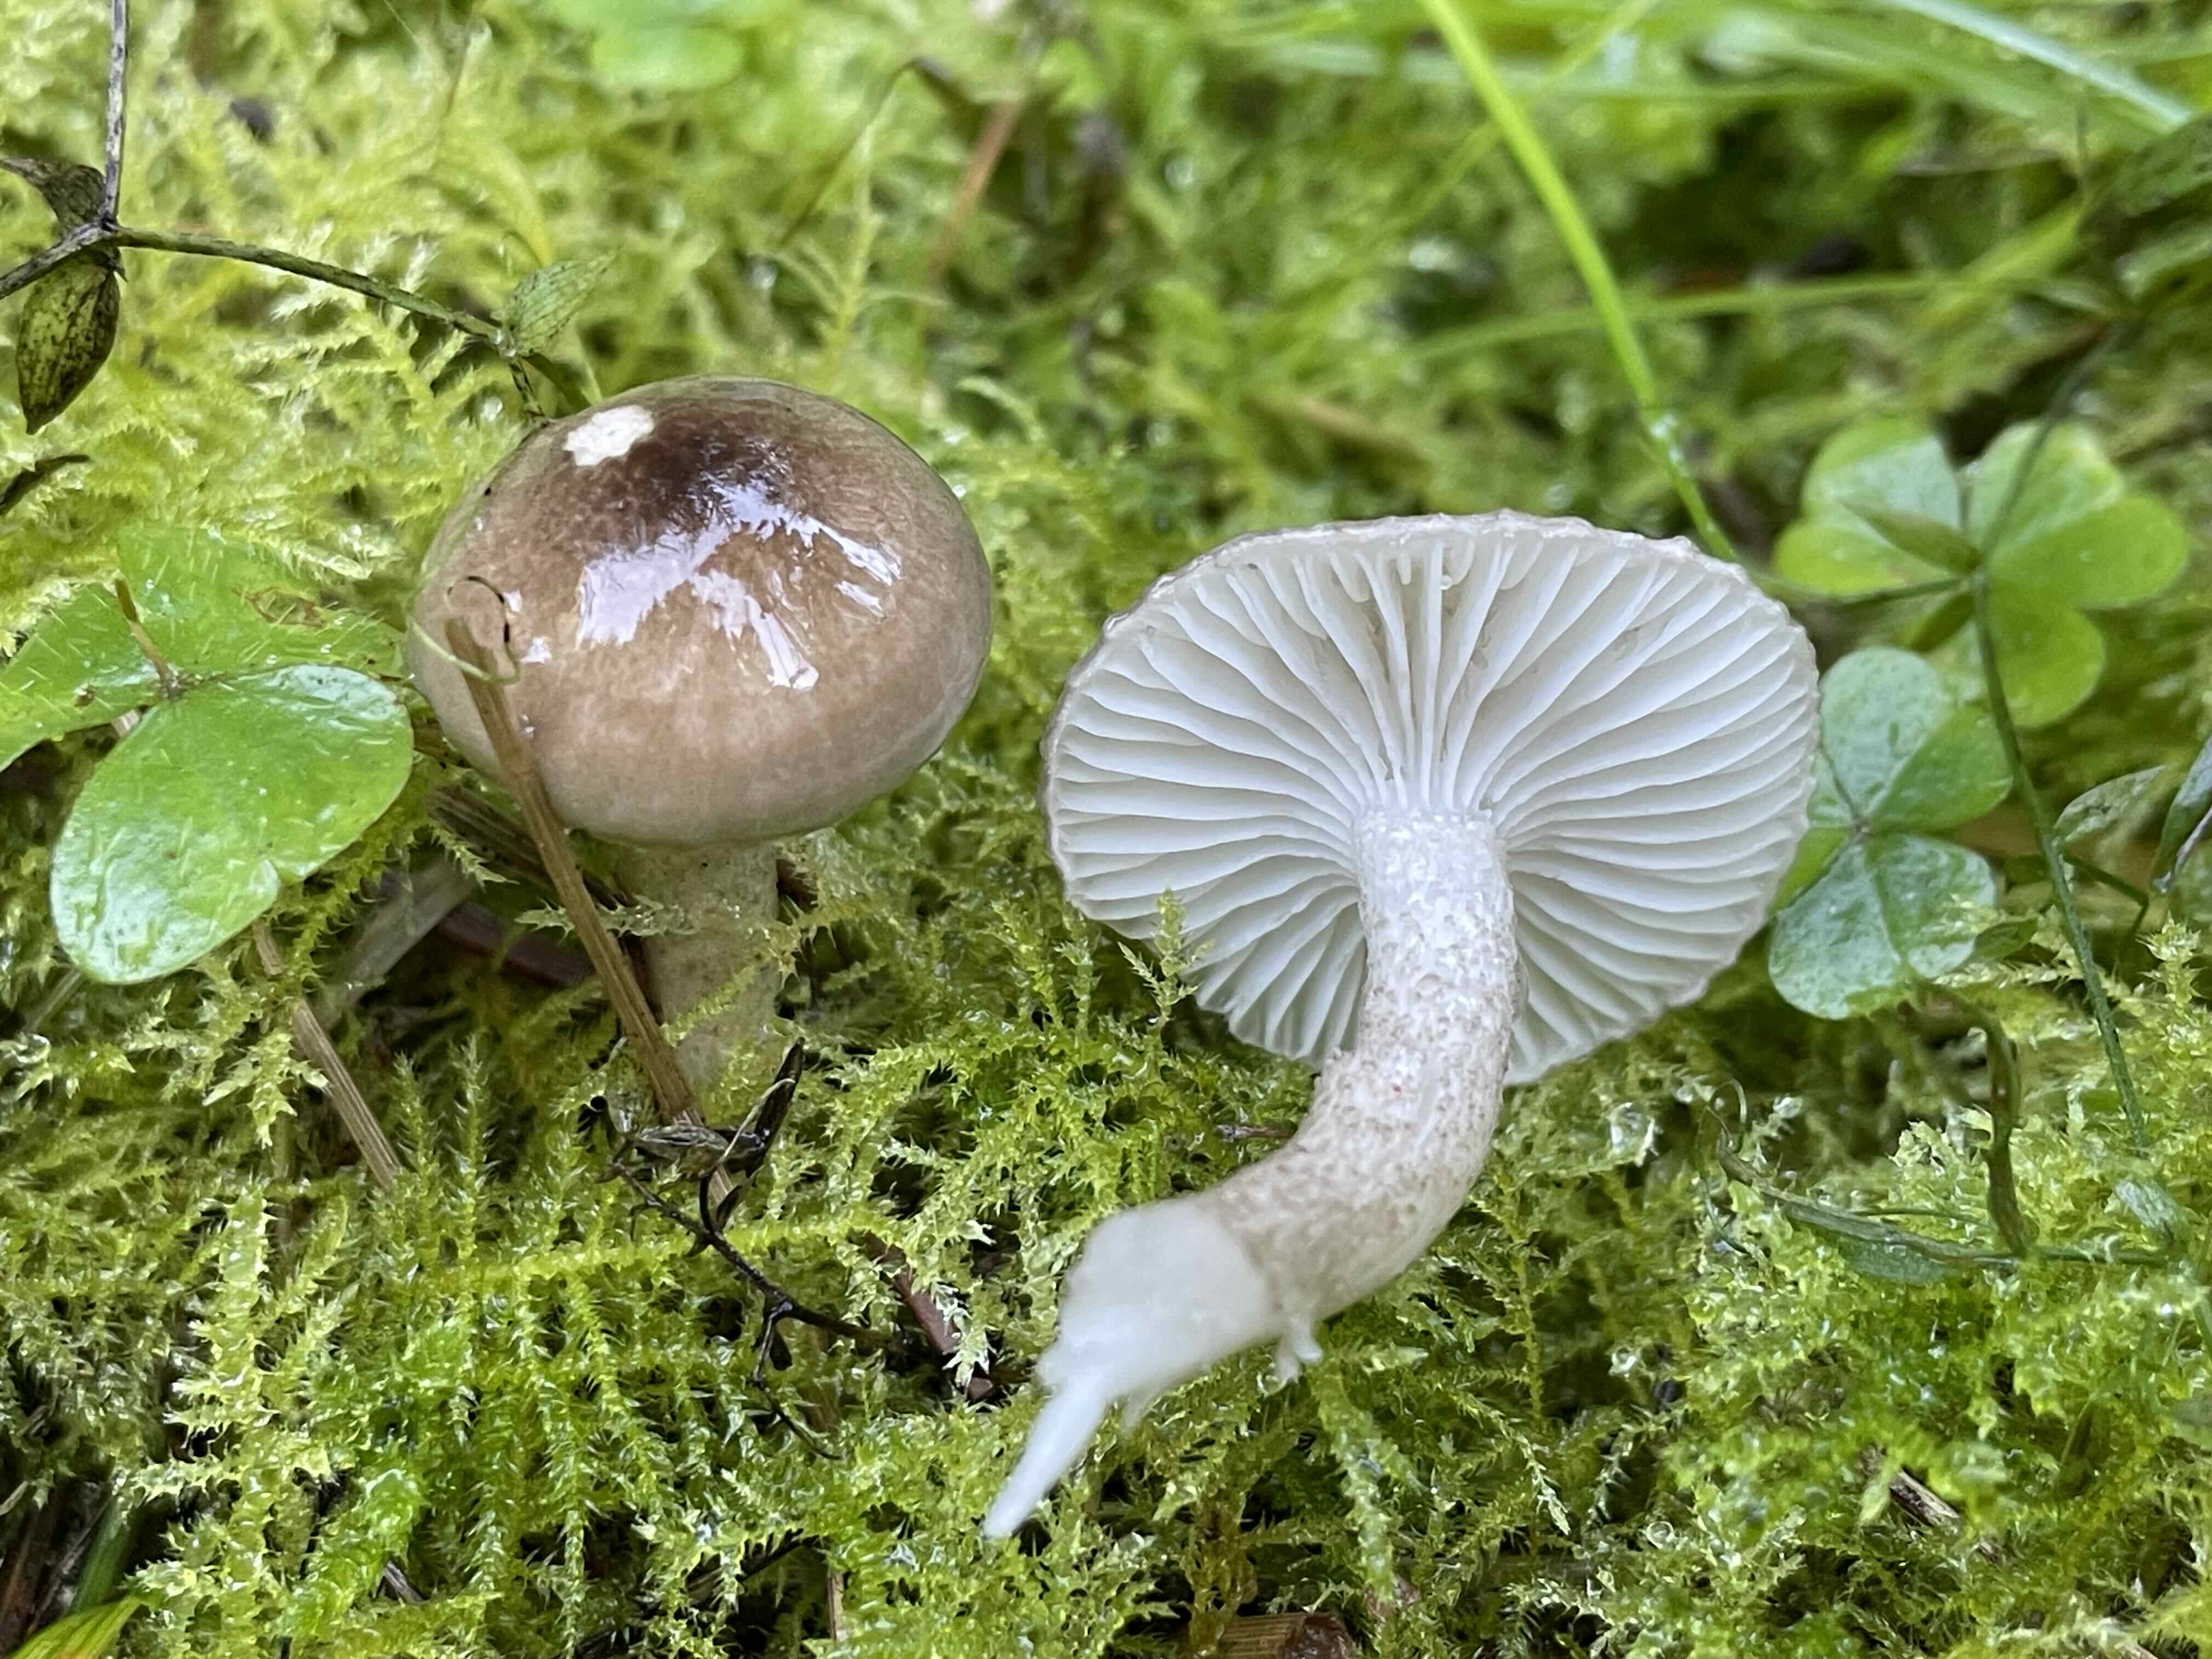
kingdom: Fungi
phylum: Basidiomycota
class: Agaricomycetes
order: Agaricales
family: Hygrophoraceae
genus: Hygrophorus
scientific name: Hygrophorus pustulatus
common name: mørkprikket sneglehat
